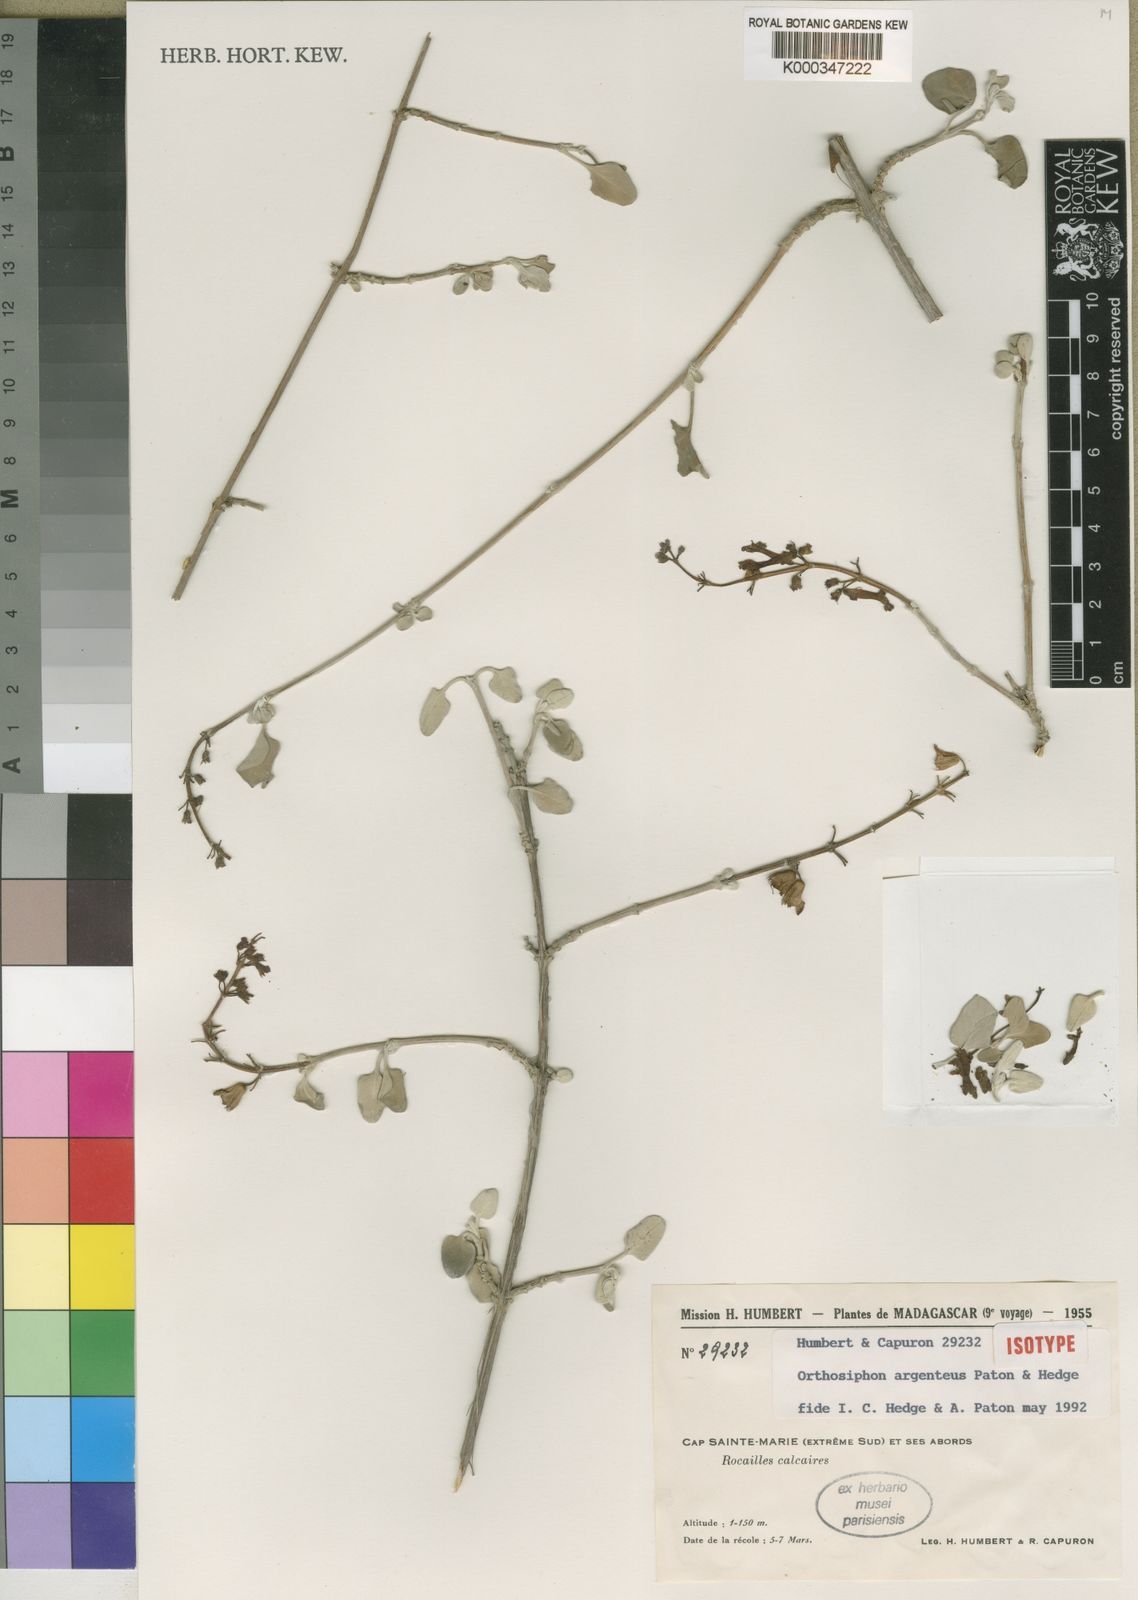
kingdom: Plantae
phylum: Tracheophyta
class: Magnoliopsida
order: Lamiales
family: Lamiaceae
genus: Orthosiphon
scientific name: Orthosiphon argenteus
